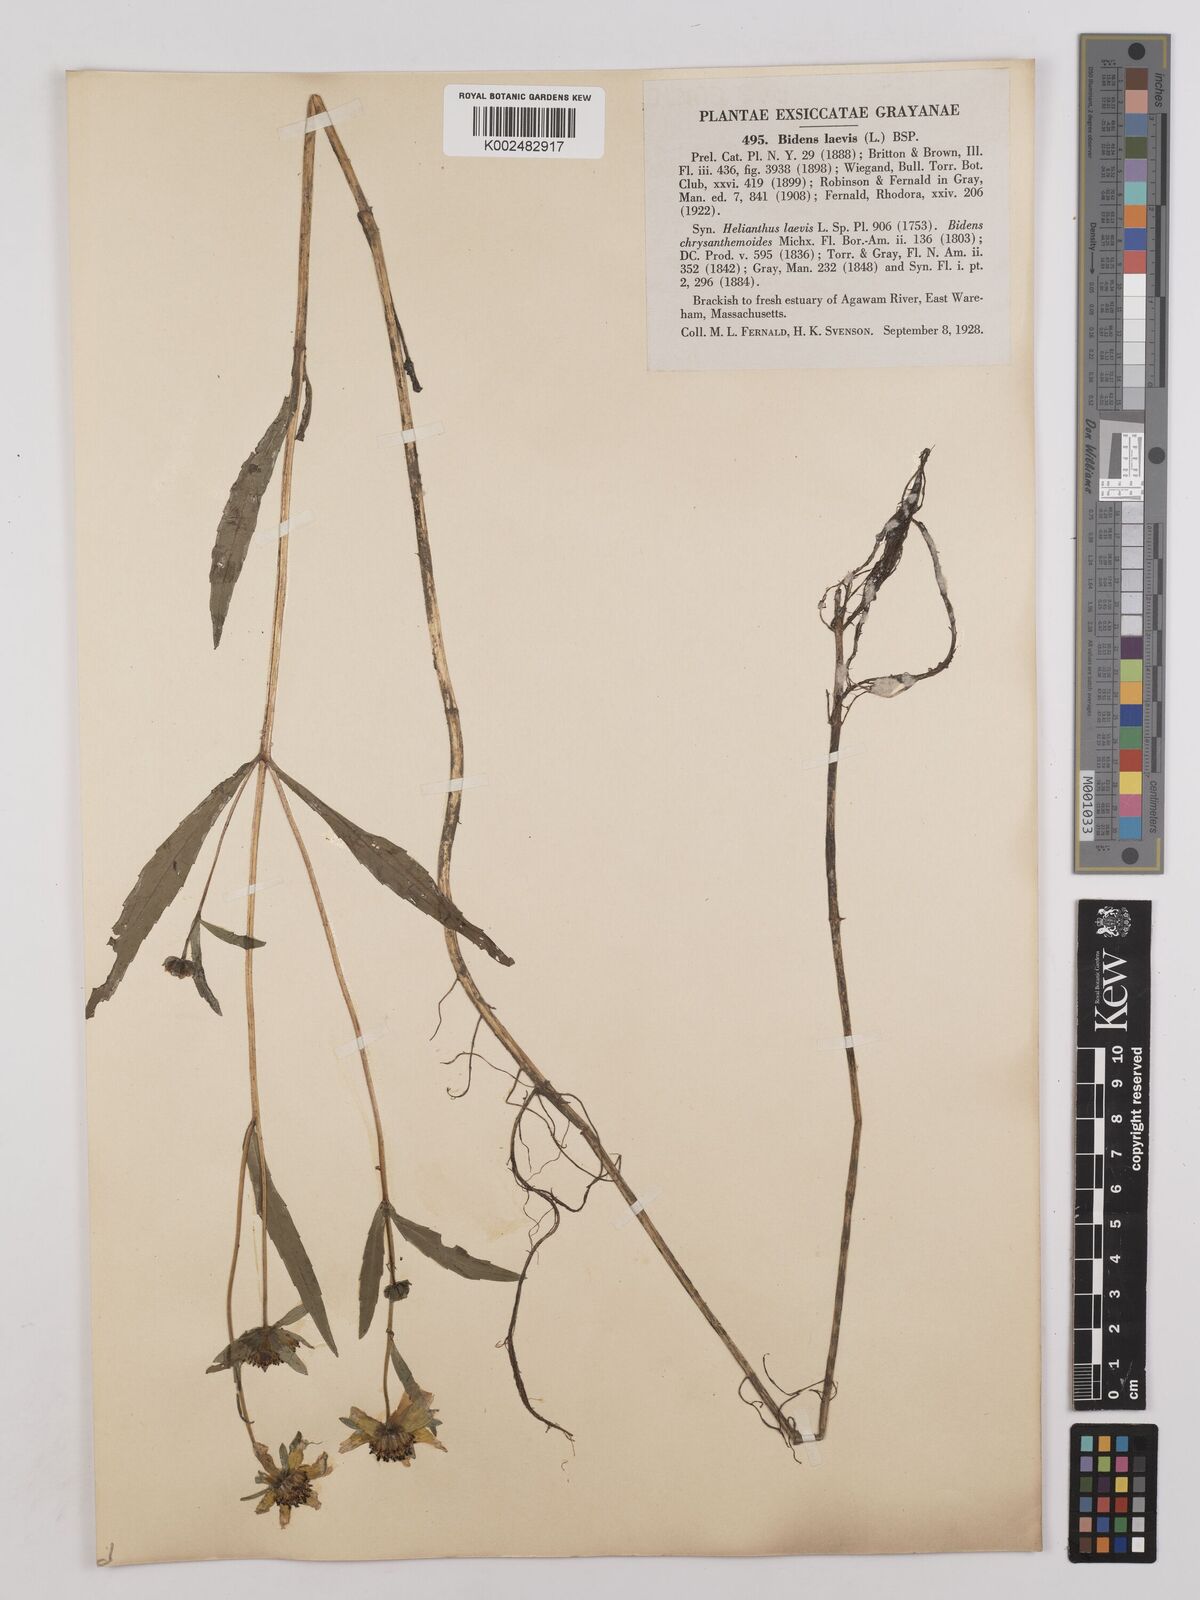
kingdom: Plantae
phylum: Tracheophyta
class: Magnoliopsida
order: Asterales
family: Asteraceae
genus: Bidens
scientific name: Bidens
